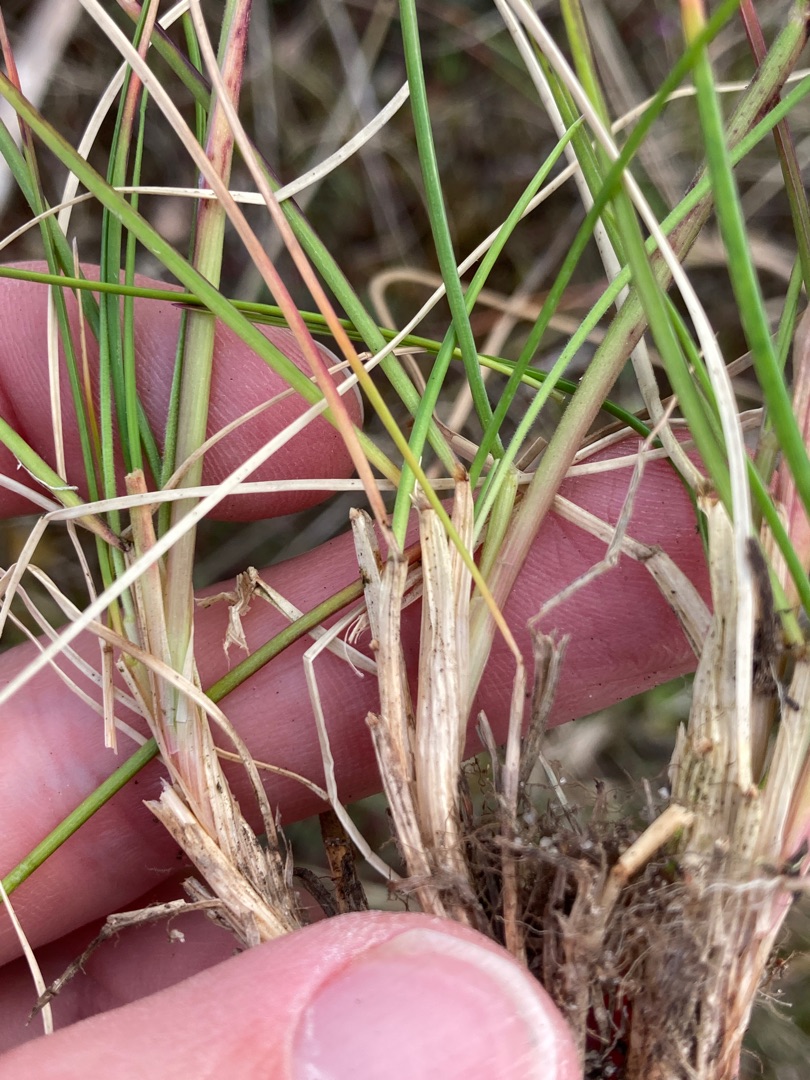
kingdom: Plantae
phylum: Tracheophyta
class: Liliopsida
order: Poales
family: Poaceae
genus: Festuca
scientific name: Festuca trachyphylla
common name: Bakke-svingel
